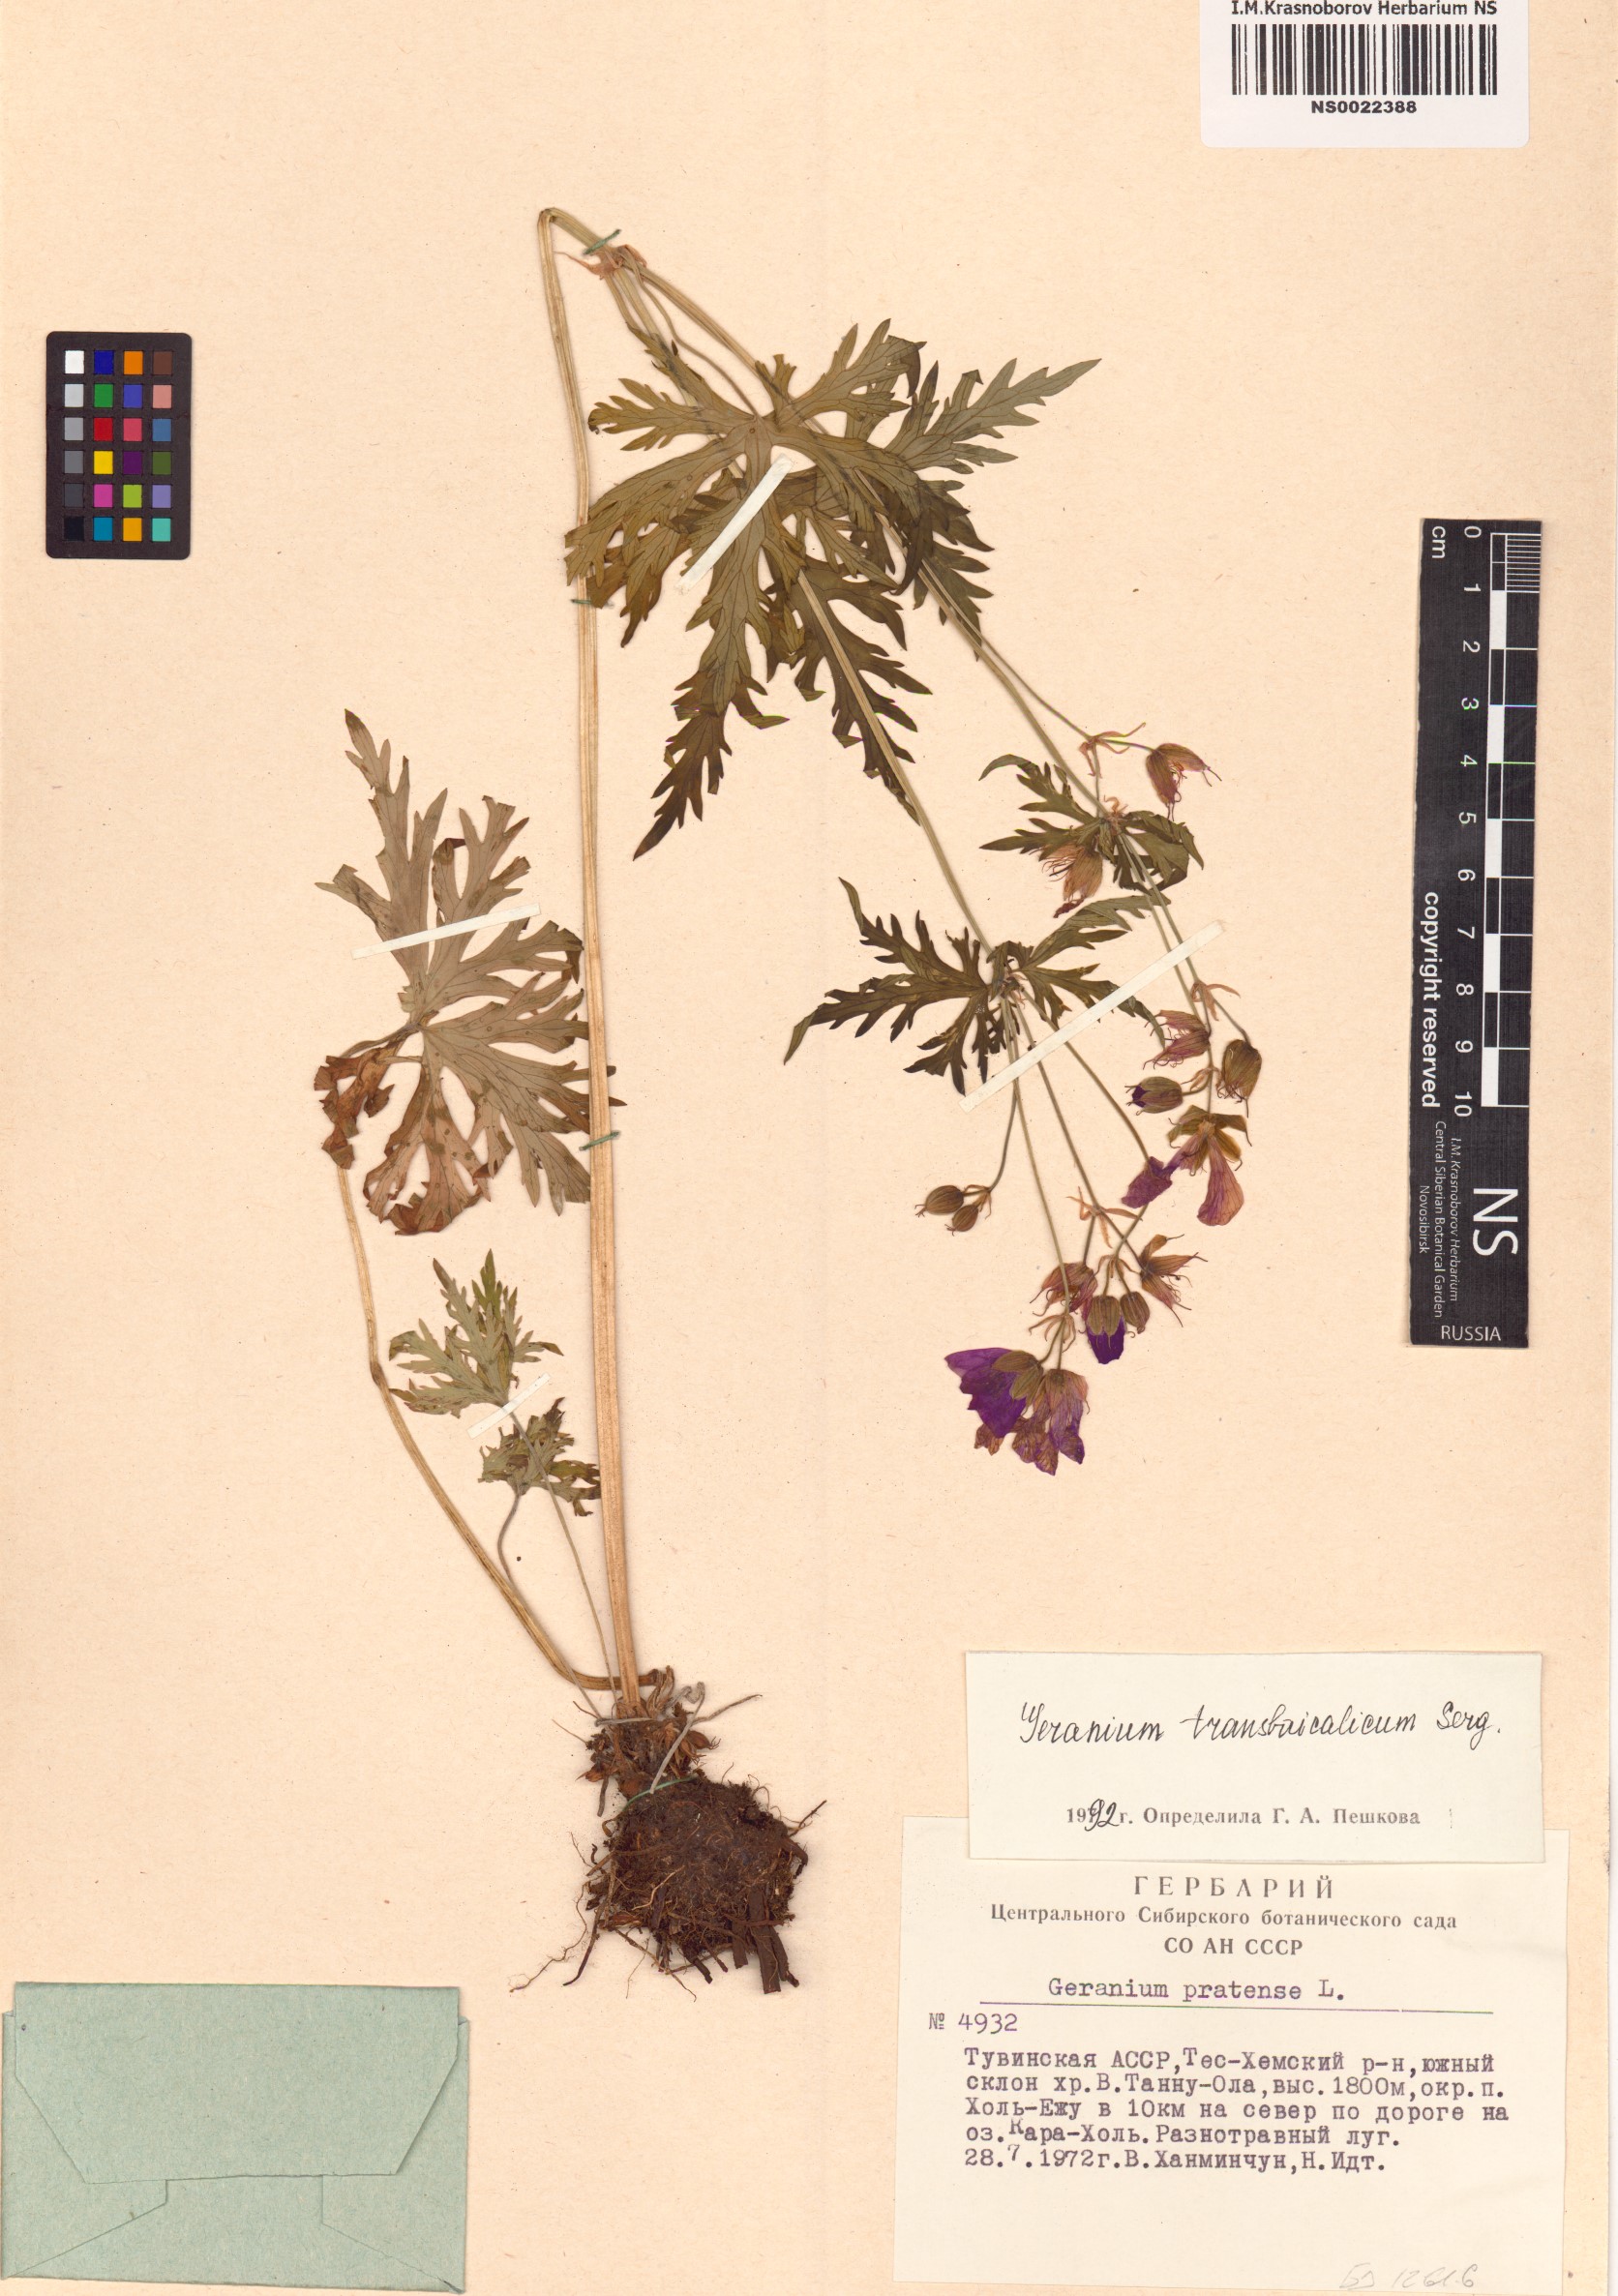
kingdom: Plantae
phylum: Tracheophyta
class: Magnoliopsida
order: Geraniales
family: Geraniaceae
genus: Geranium
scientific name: Geranium pratense
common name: Meadow crane's-bill
